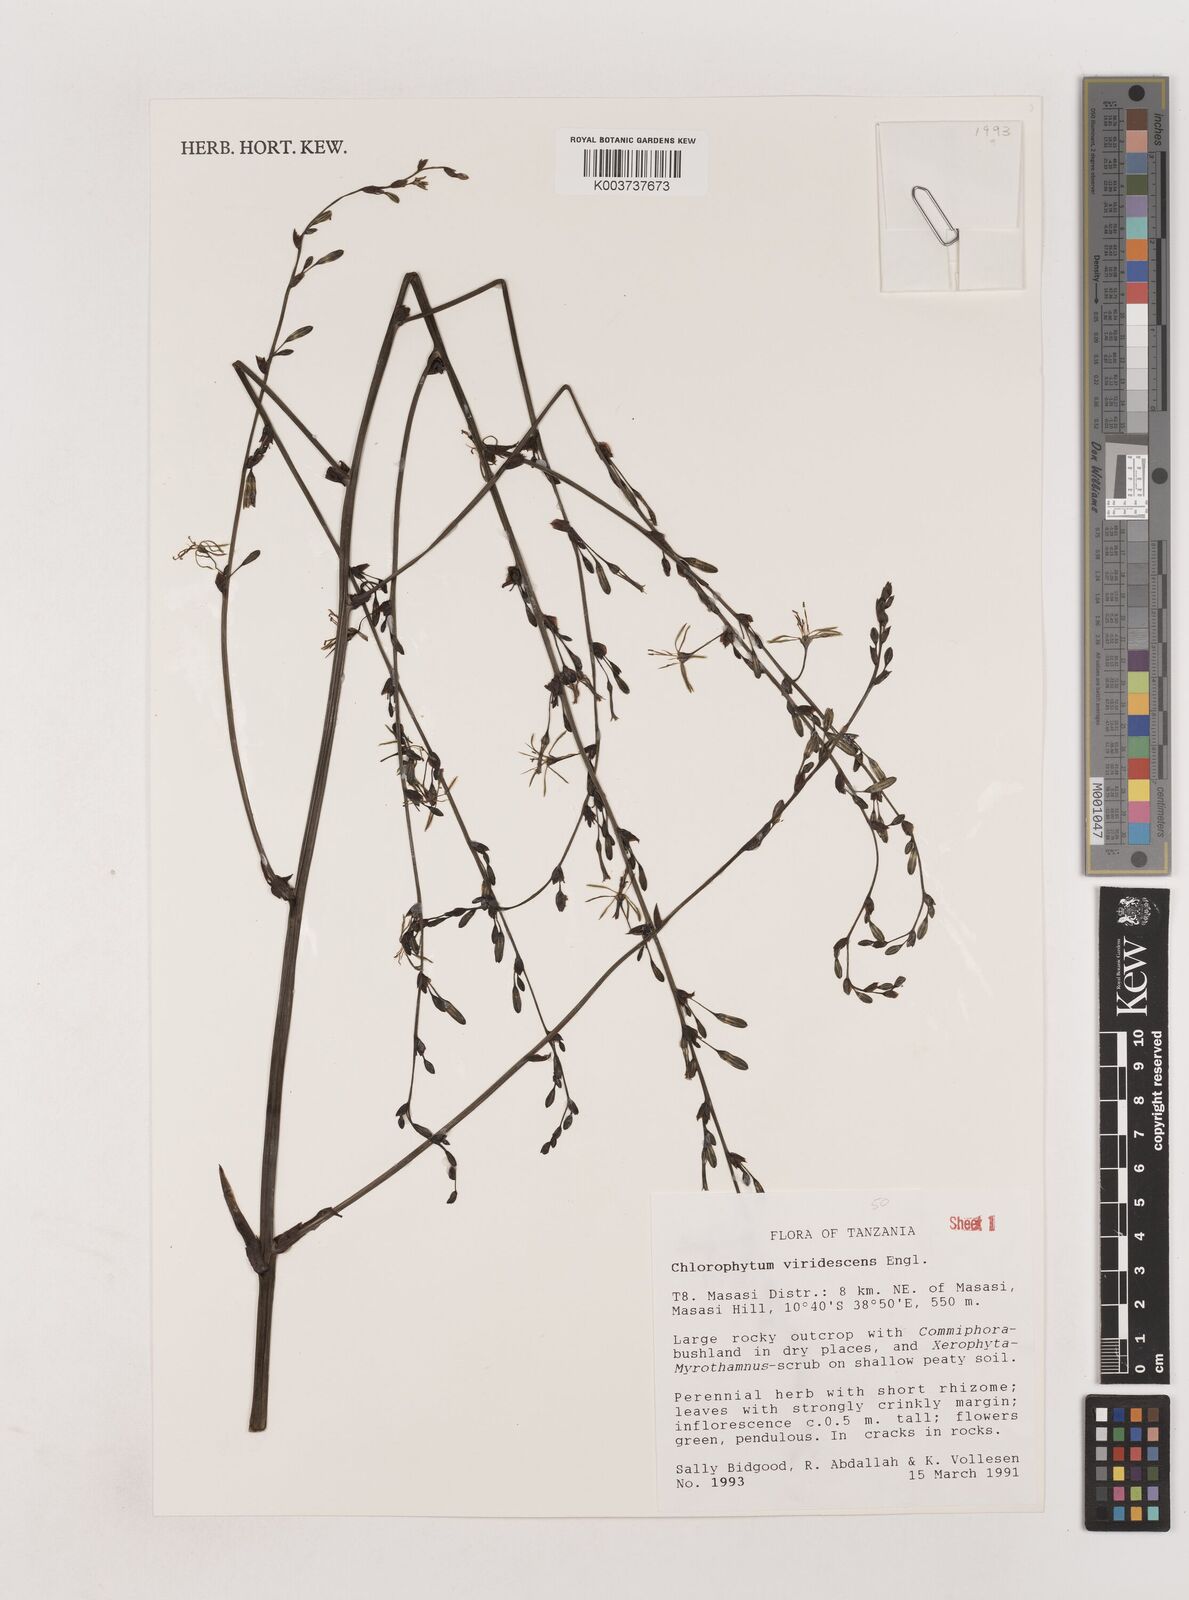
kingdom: Plantae
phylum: Tracheophyta
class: Liliopsida
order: Asparagales
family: Asparagaceae
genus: Chlorophytum
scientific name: Chlorophytum viridescens
